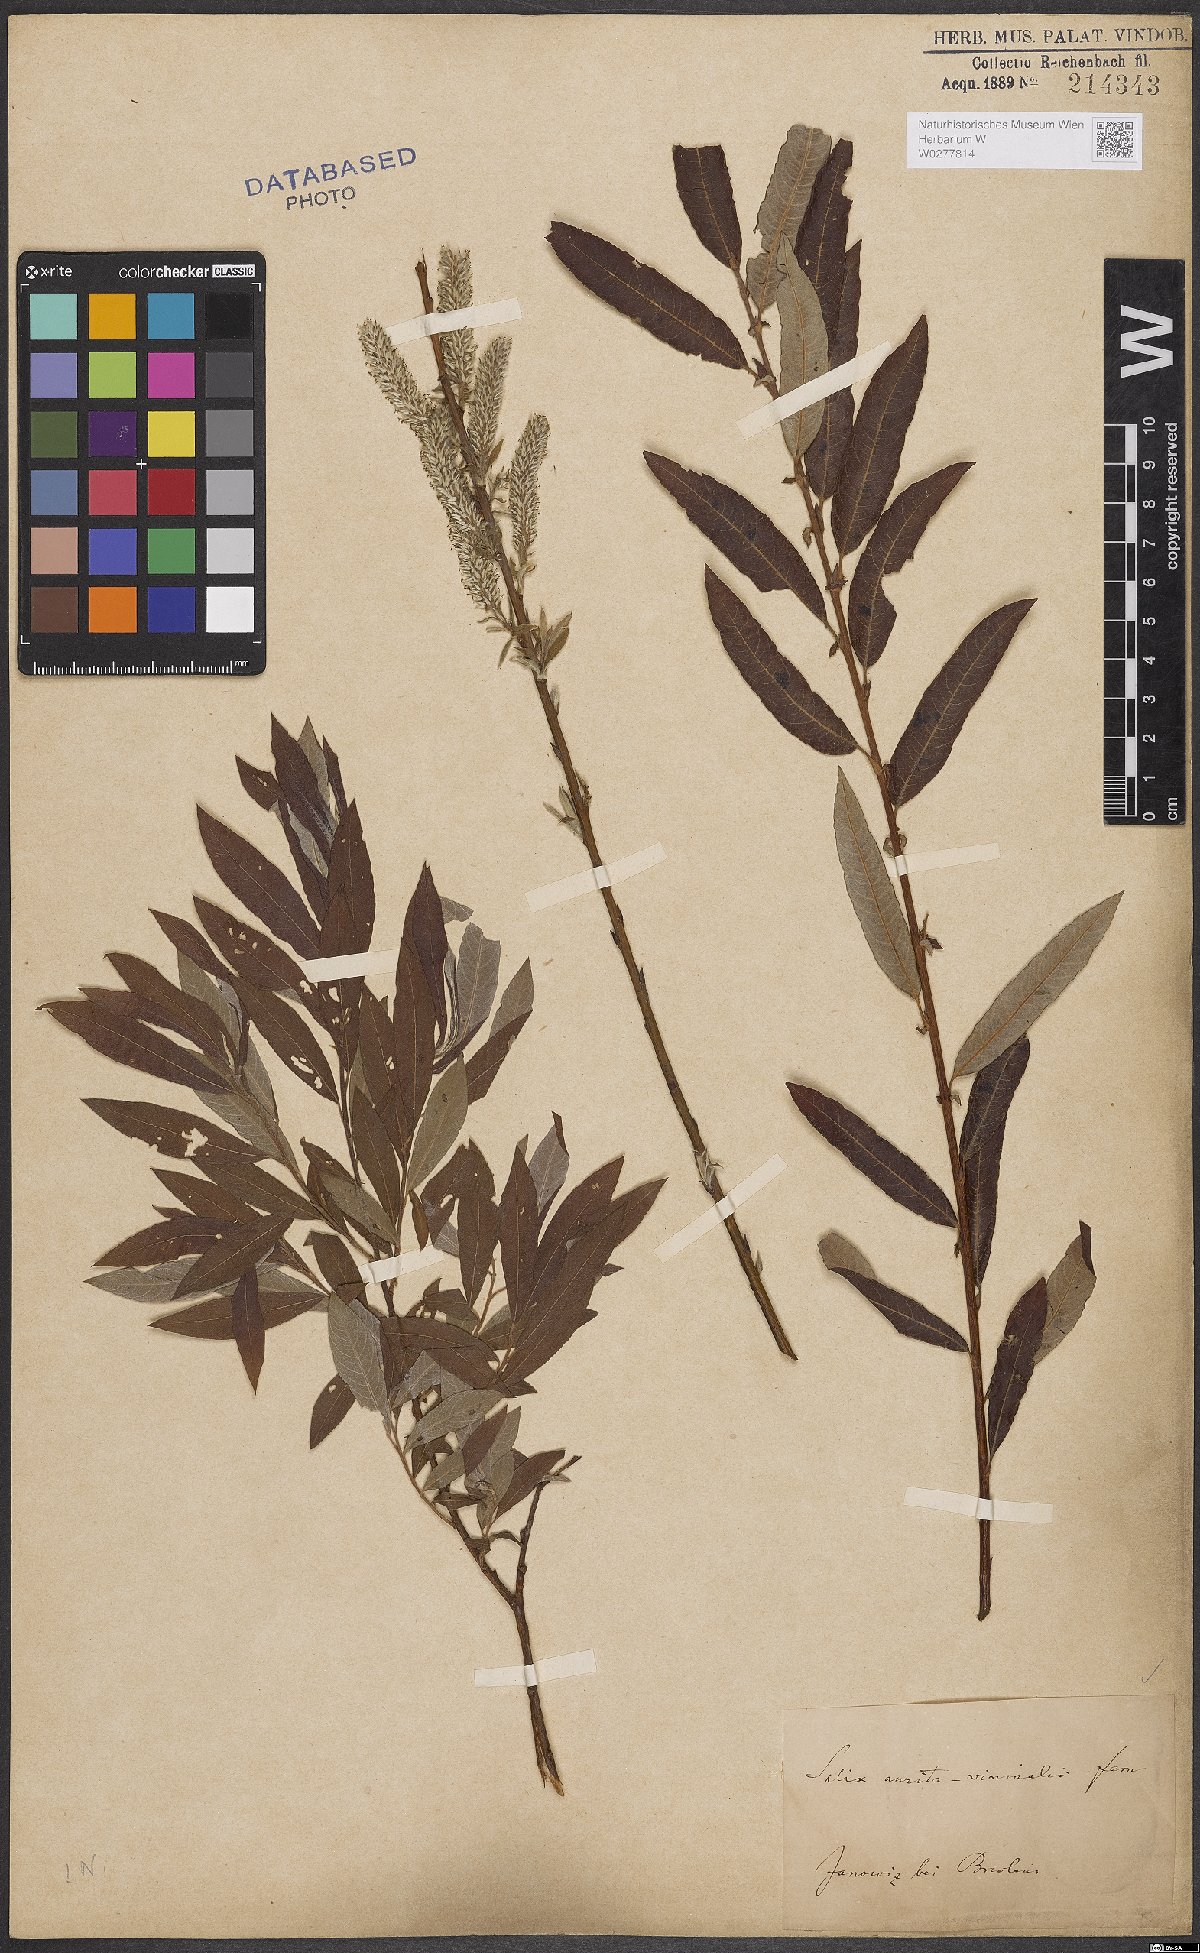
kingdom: Plantae
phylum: Tracheophyta
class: Magnoliopsida
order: Malpighiales
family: Salicaceae
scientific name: Salicaceae
